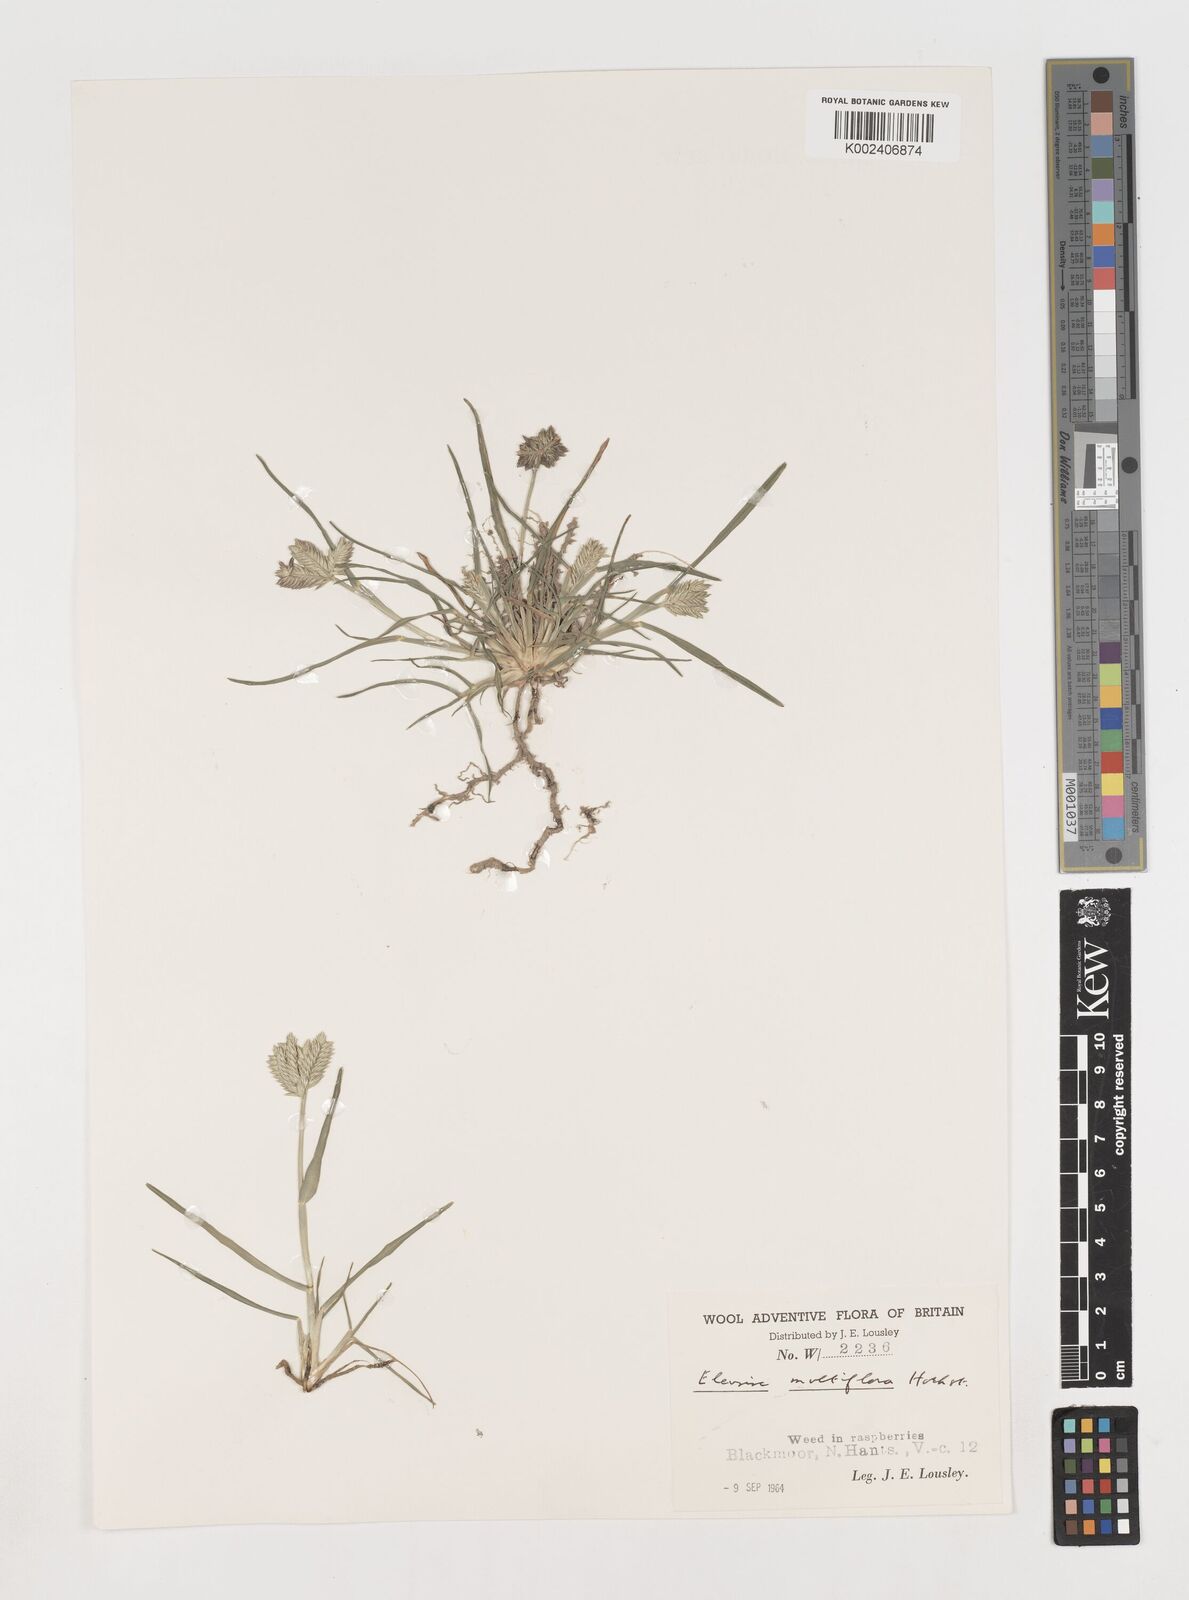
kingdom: Plantae
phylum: Tracheophyta
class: Liliopsida
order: Poales
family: Poaceae
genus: Eleusine
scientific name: Eleusine tristachya
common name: American yard-grass
